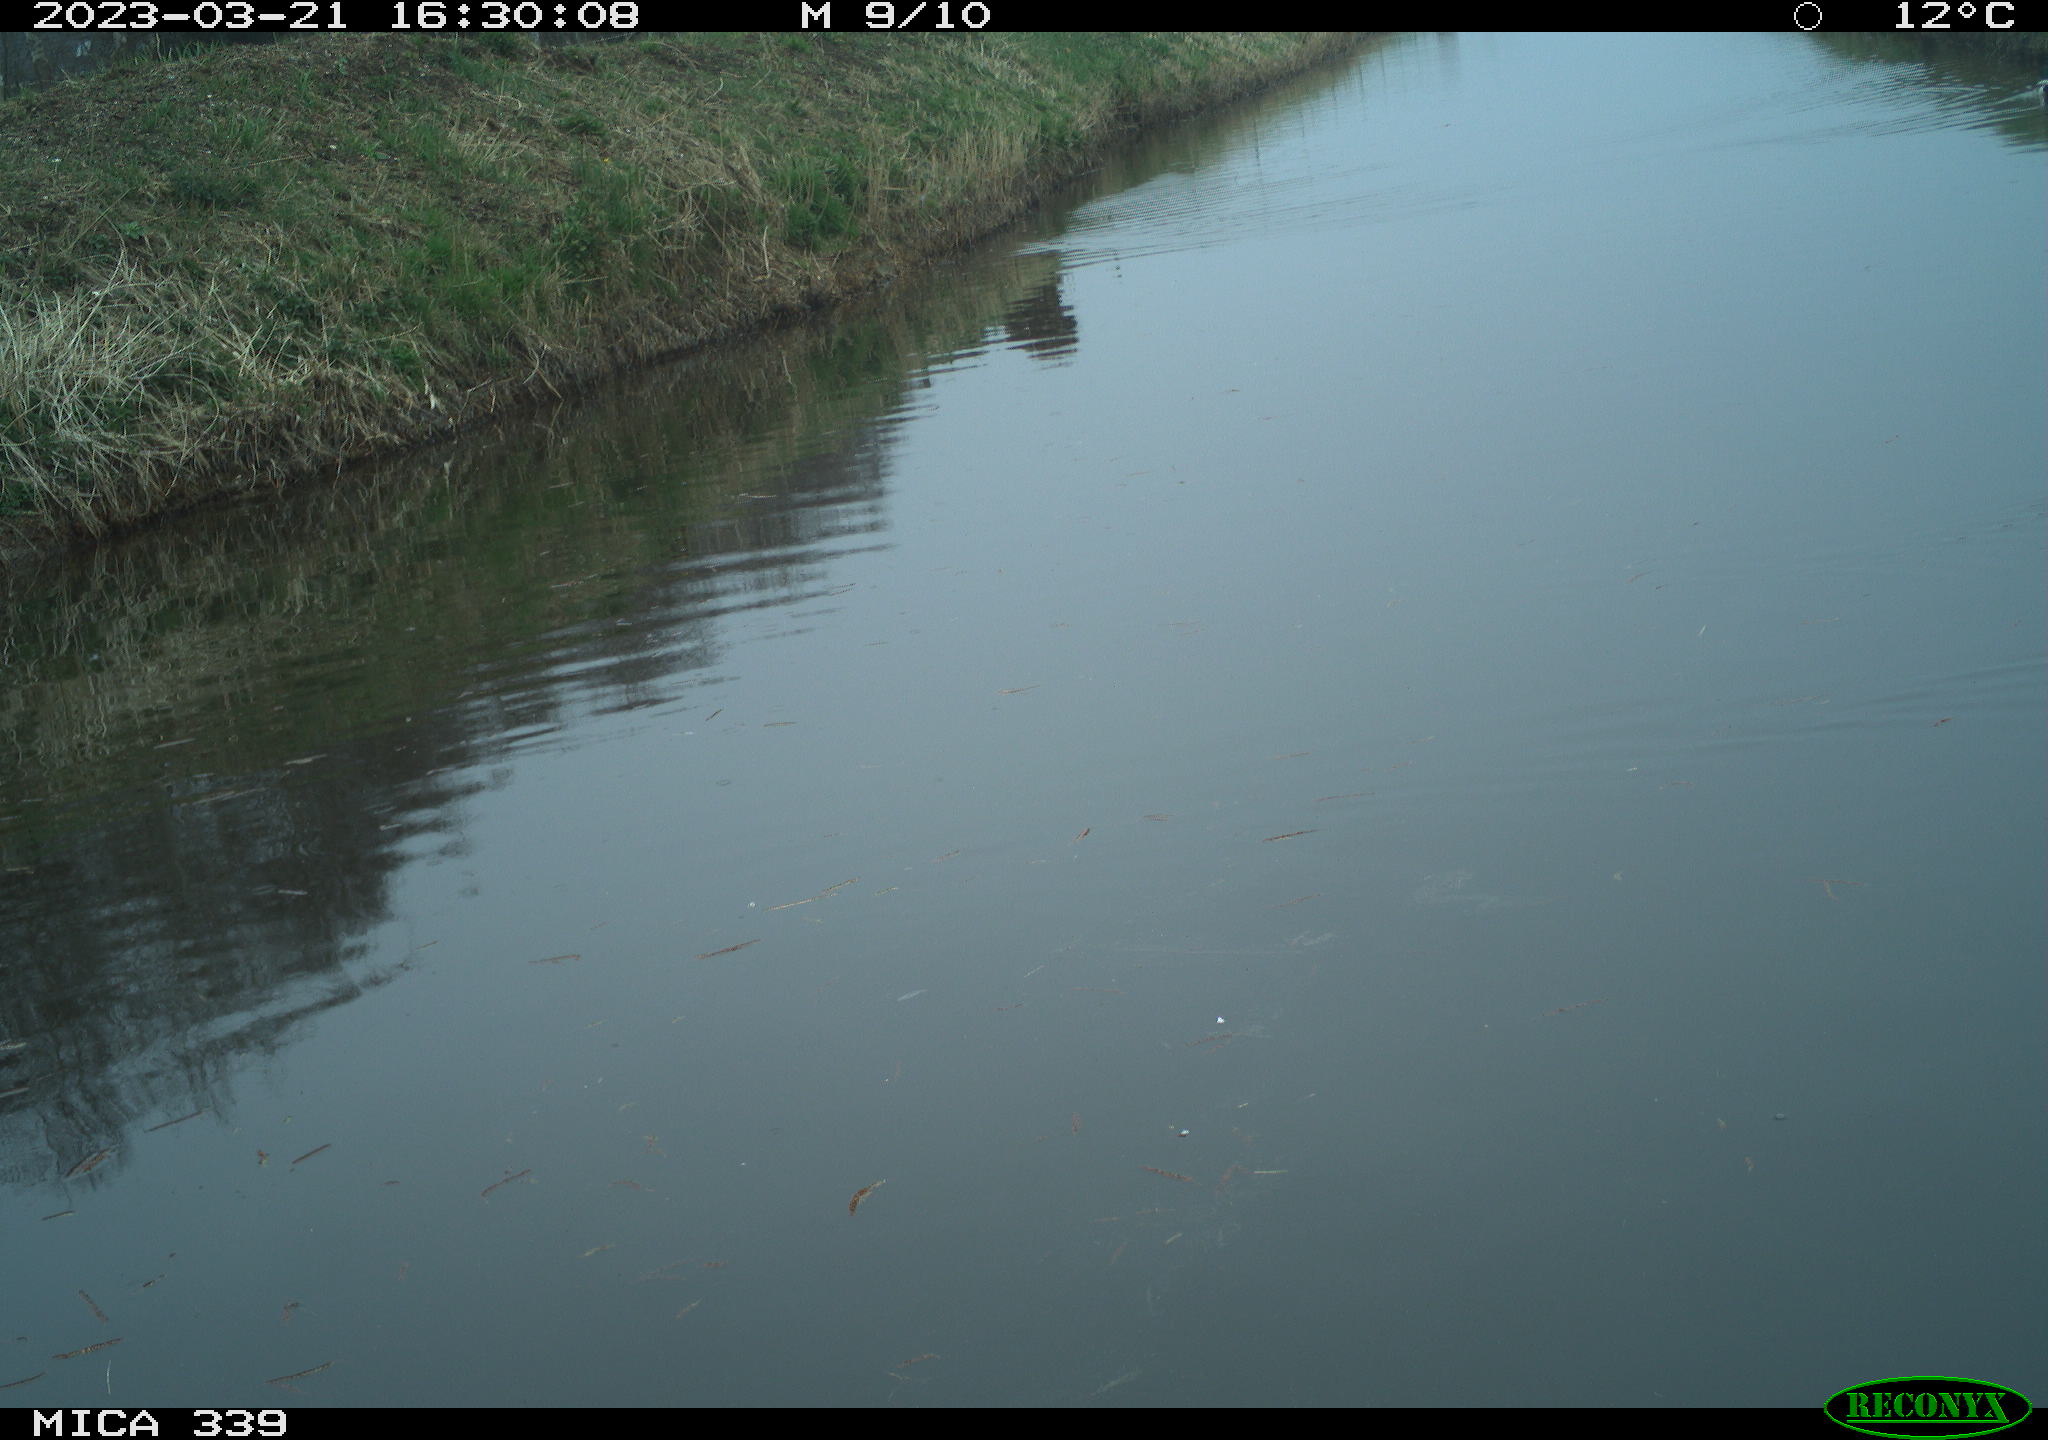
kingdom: Animalia
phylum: Chordata
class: Aves
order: Anseriformes
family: Anatidae
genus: Anas
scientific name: Anas
